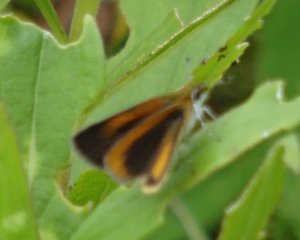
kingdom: Animalia
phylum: Arthropoda
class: Insecta
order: Lepidoptera
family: Hesperiidae
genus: Ancyloxypha
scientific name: Ancyloxypha numitor
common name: Least Skipper
